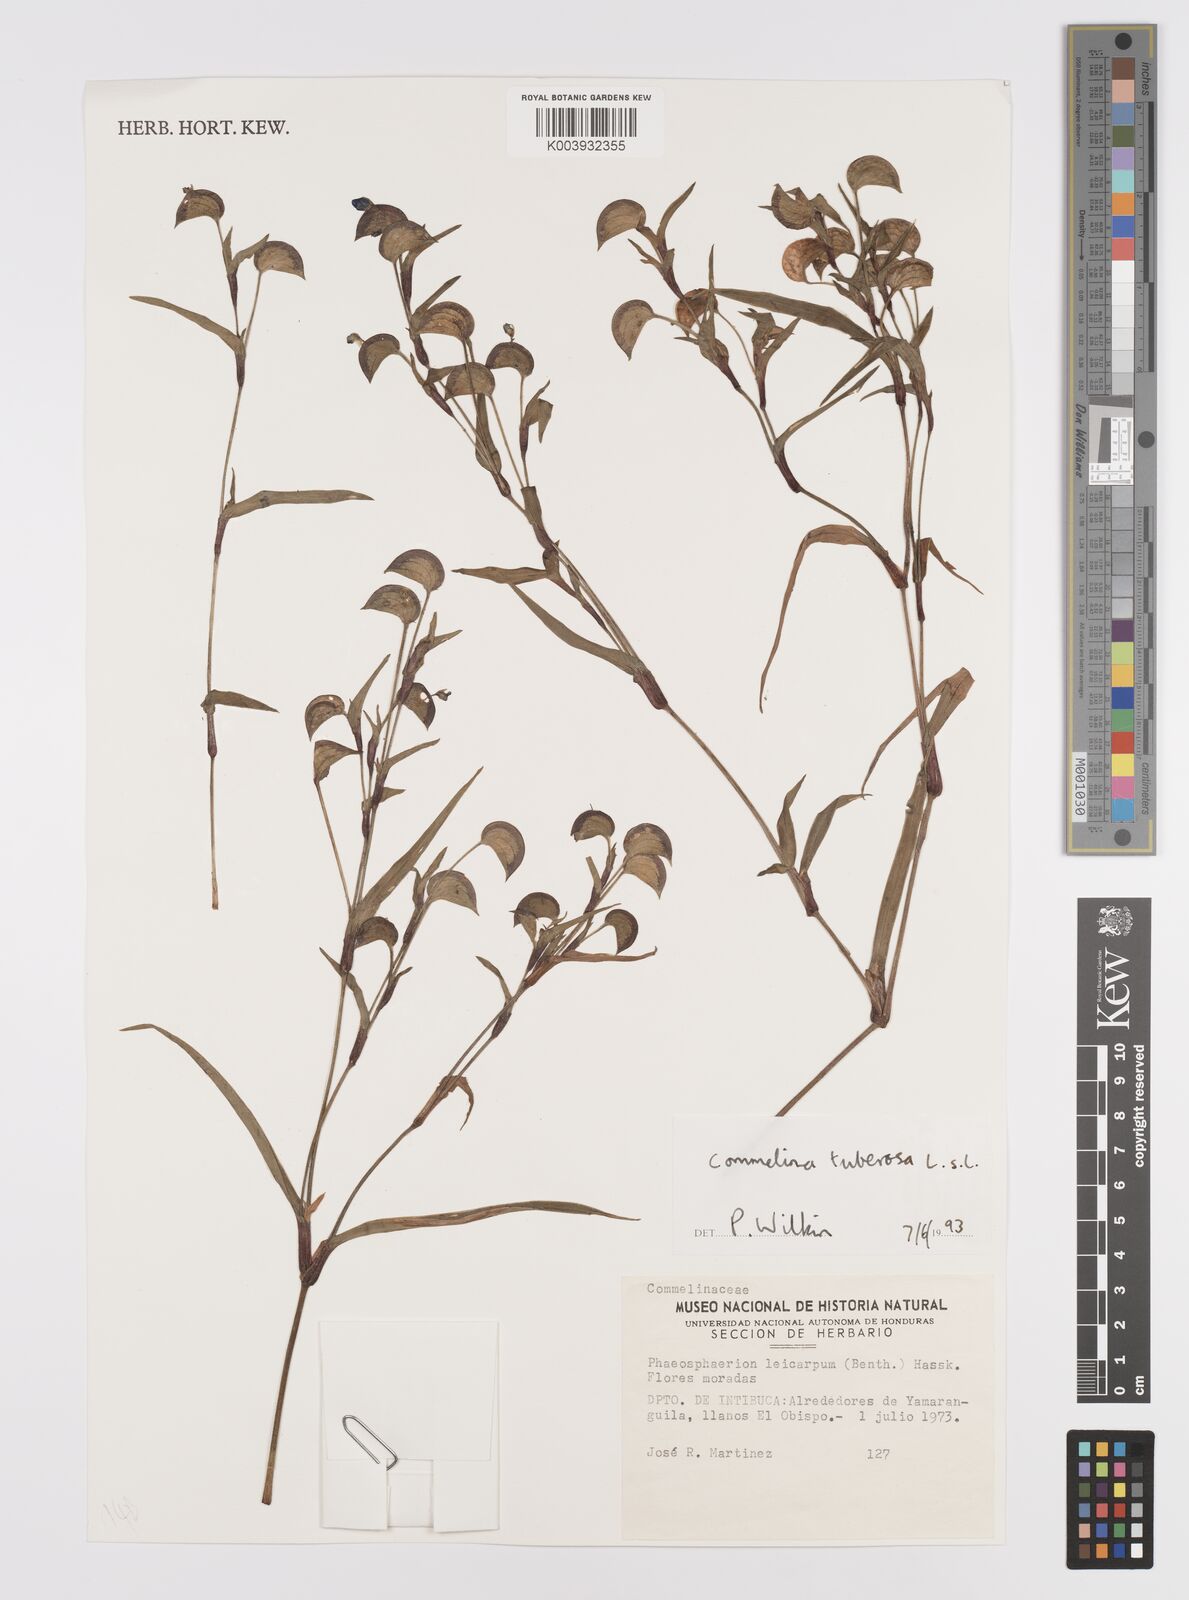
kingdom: Plantae
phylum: Tracheophyta
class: Liliopsida
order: Commelinales
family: Commelinaceae
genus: Commelina
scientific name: Commelina tuberosa
